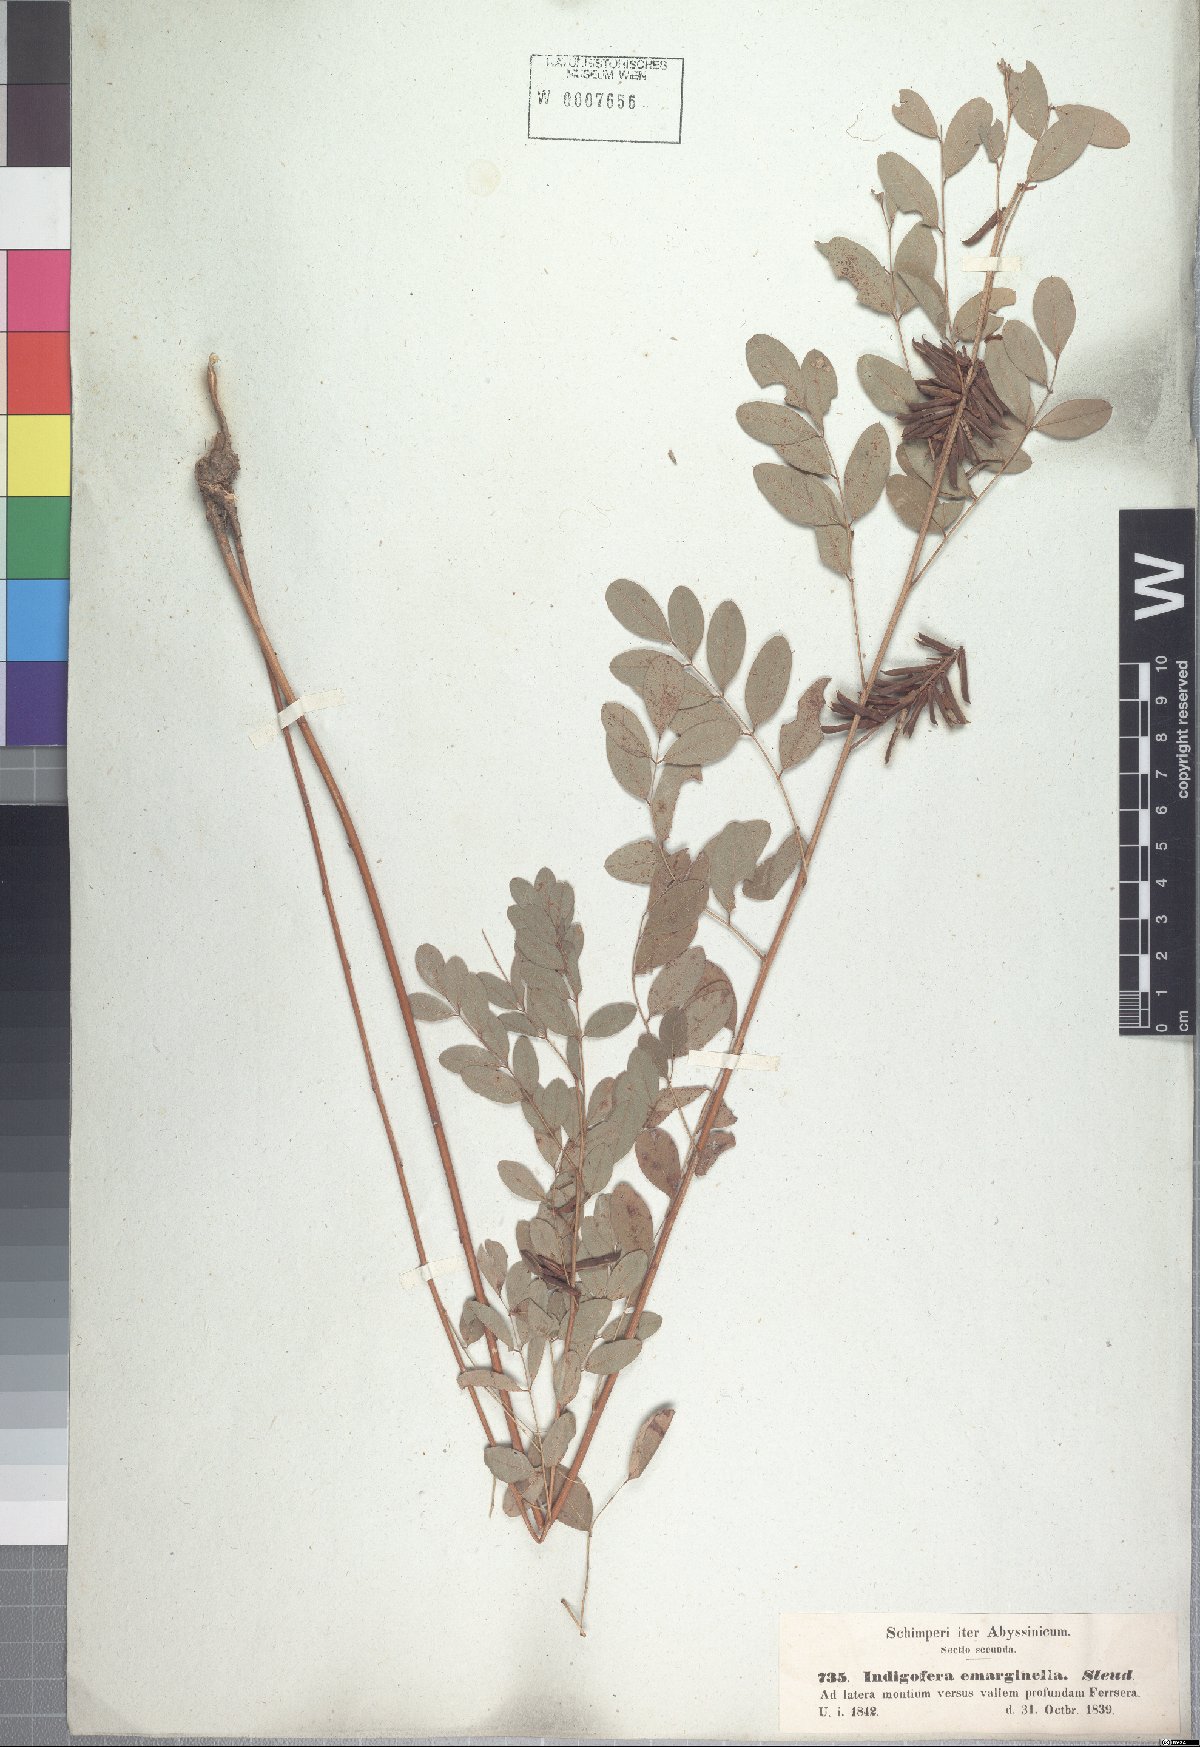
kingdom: Plantae
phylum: Tracheophyta
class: Magnoliopsida
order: Fabales
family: Fabaceae
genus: Indigofera
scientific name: Indigofera emarginella
